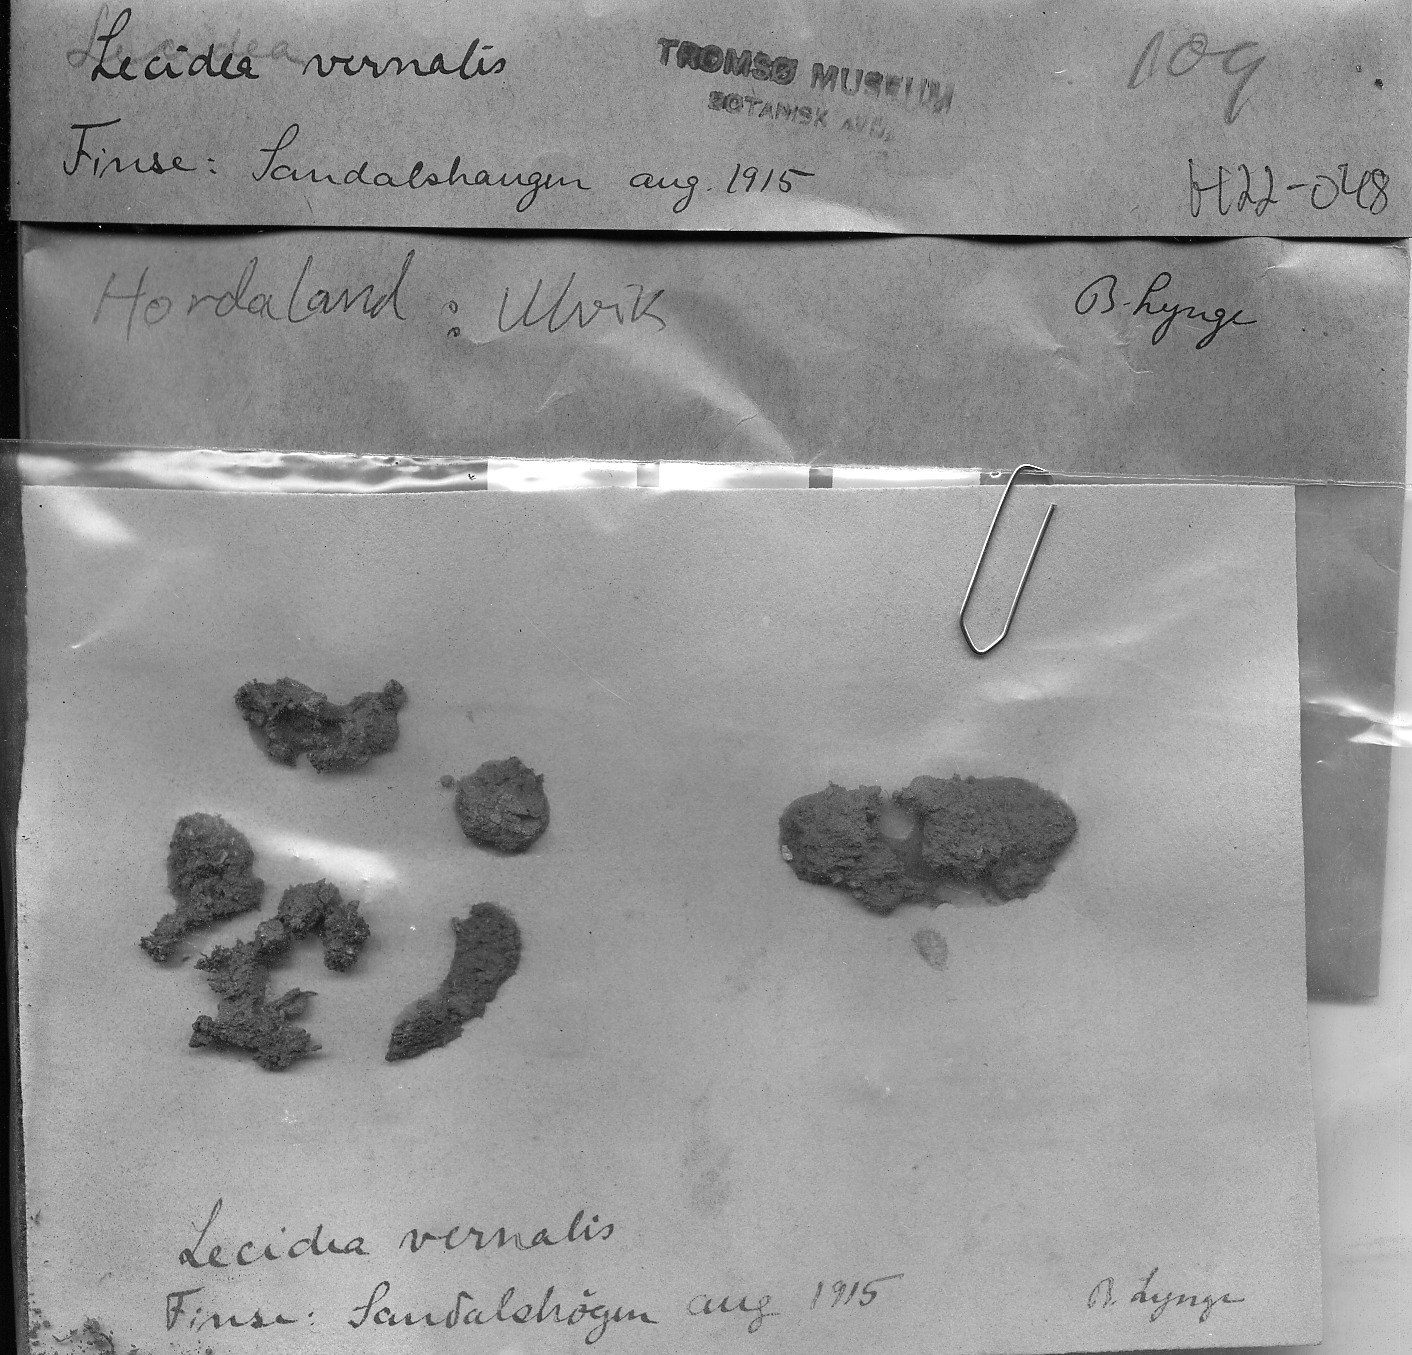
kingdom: Fungi
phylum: Ascomycota
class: Lecanoromycetes
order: Lecanorales
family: Ramalinaceae
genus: Biatora
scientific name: Biatora vernalis
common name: Snow dot lichen
